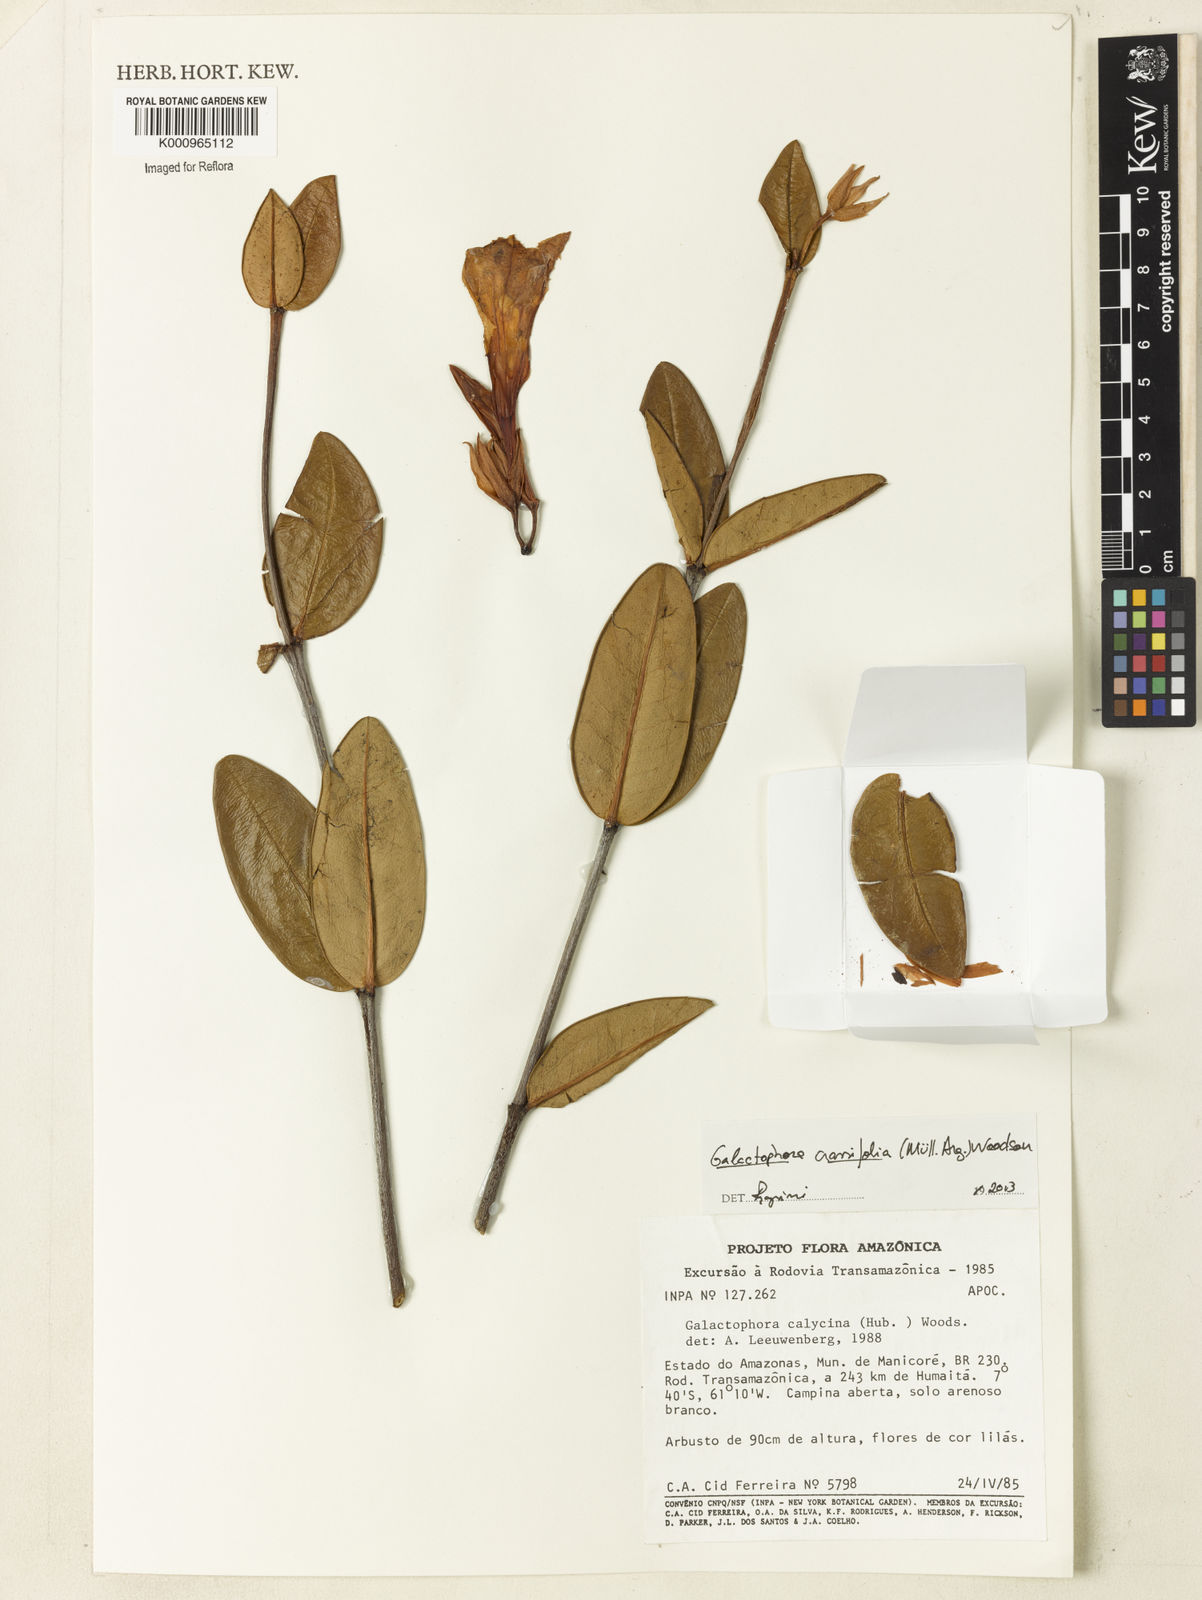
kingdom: Plantae
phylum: Tracheophyta
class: Magnoliopsida
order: Gentianales
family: Apocynaceae
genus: Galactophora
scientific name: Galactophora
